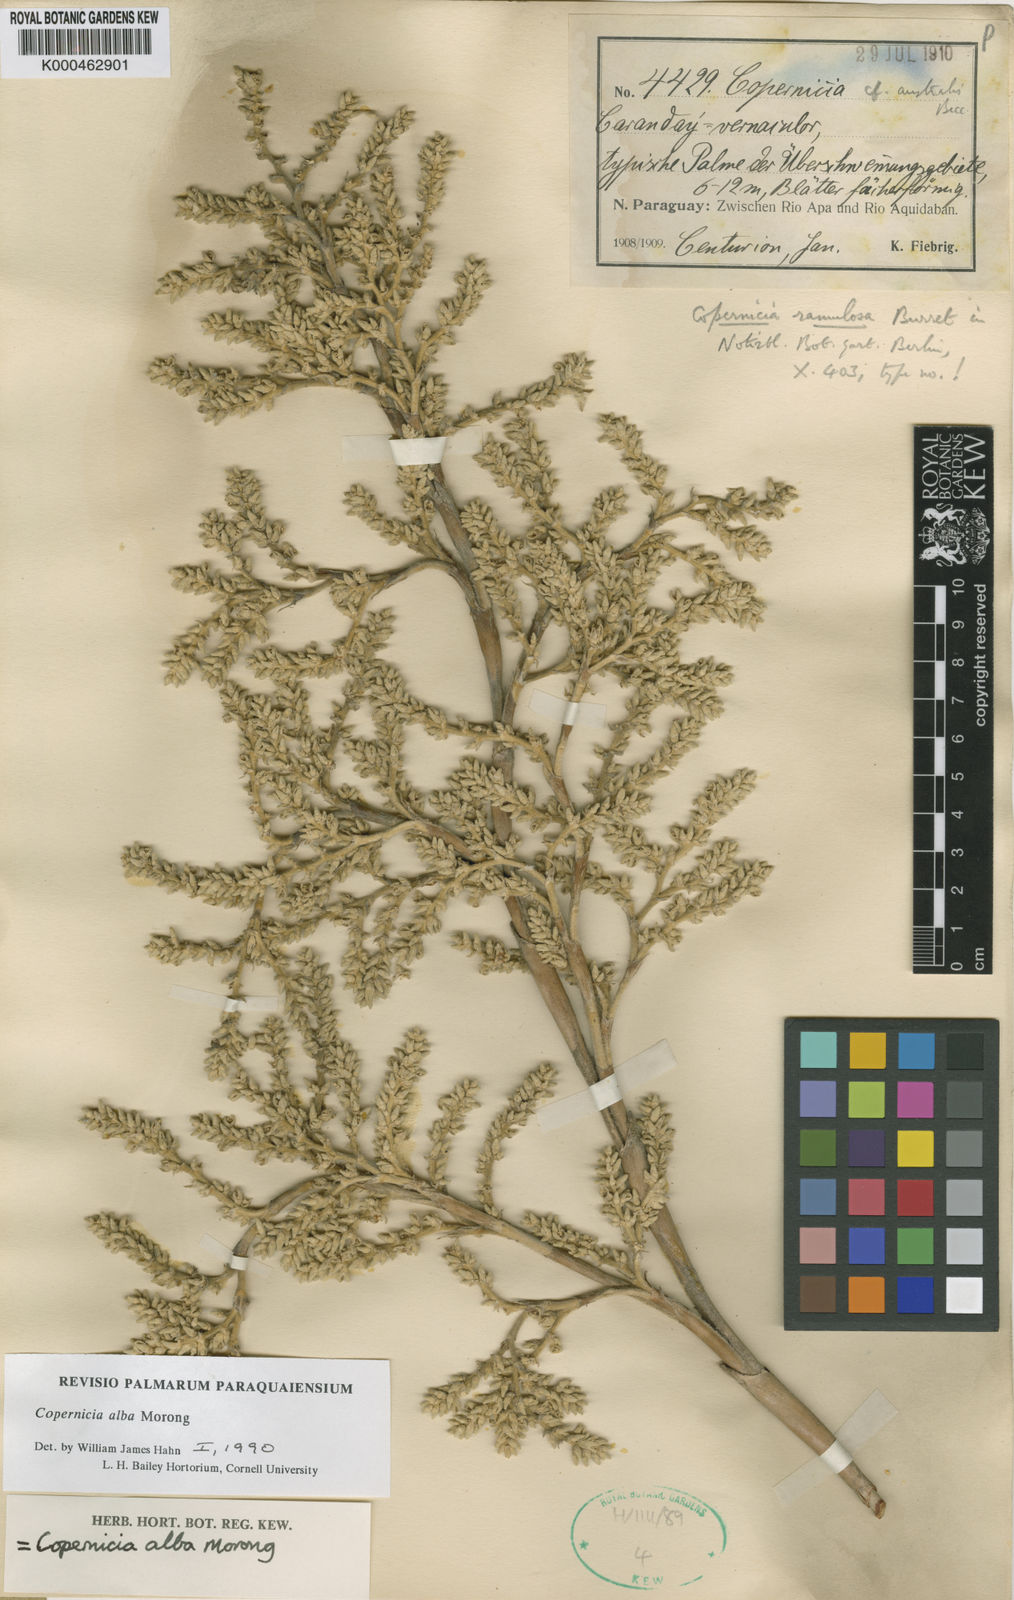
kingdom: Plantae
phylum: Tracheophyta
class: Liliopsida
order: Arecales
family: Arecaceae
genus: Copernicia
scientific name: Copernicia alba
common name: Caranday palm
